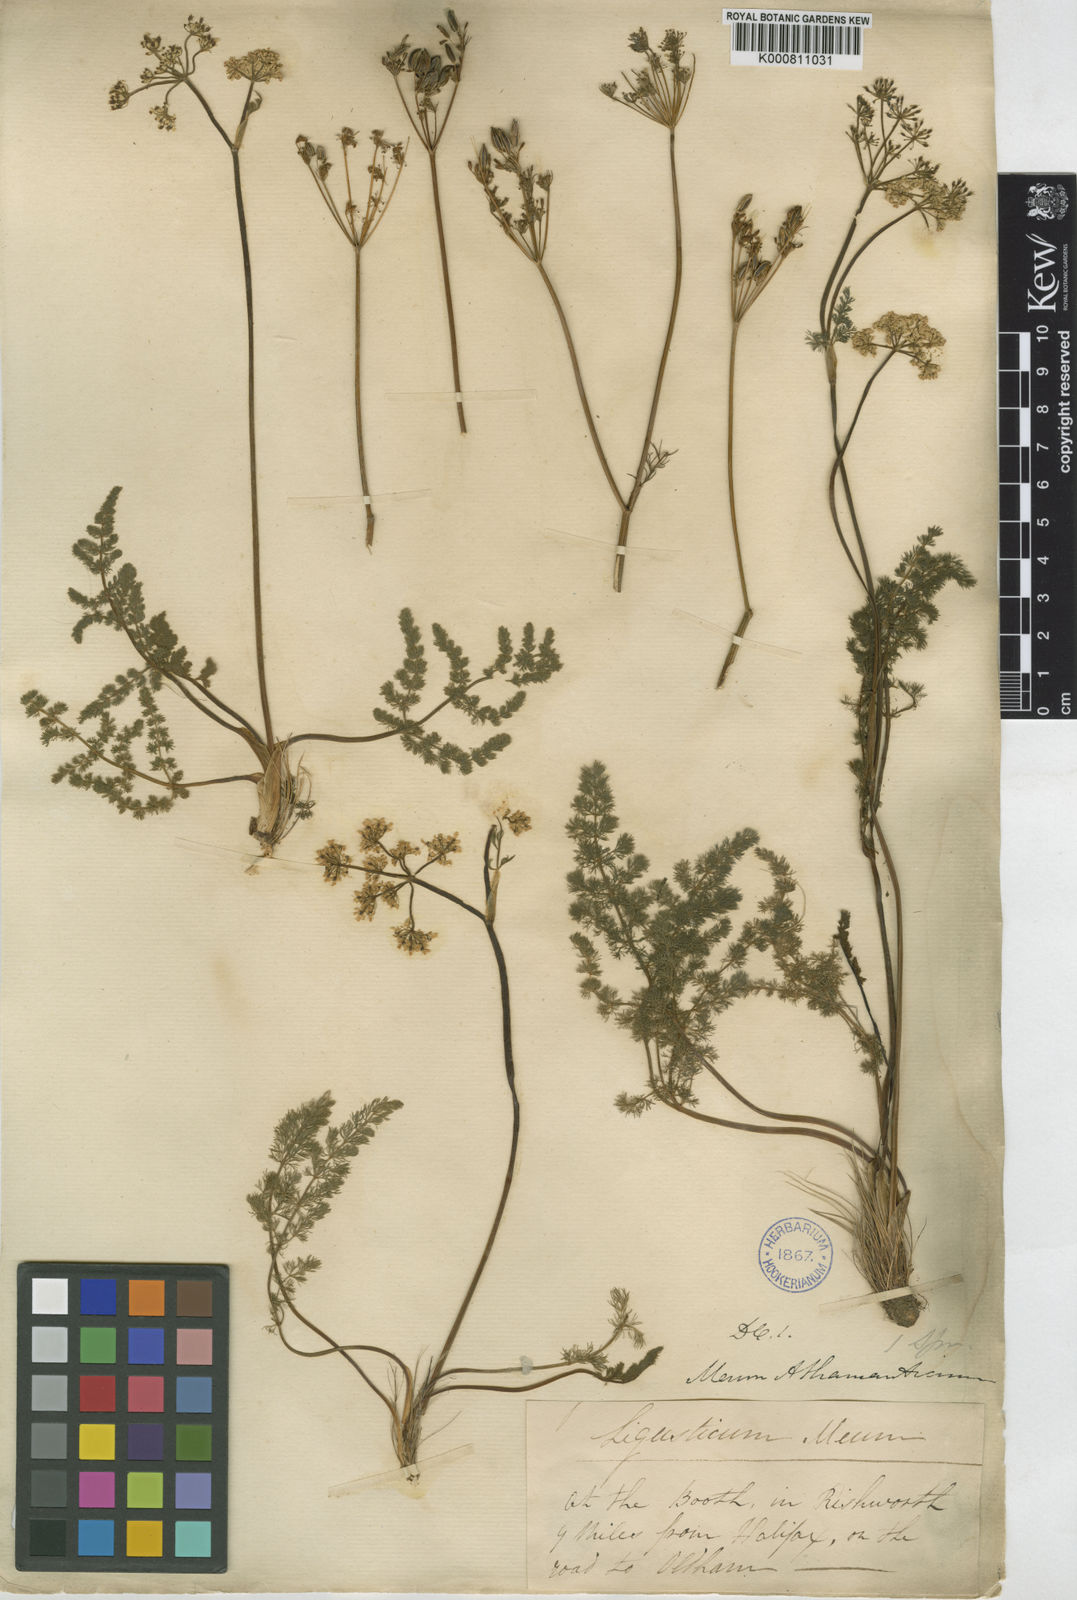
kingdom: Plantae
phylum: Tracheophyta
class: Magnoliopsida
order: Apiales
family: Apiaceae
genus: Meum
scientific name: Meum athamanticum
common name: Spignel
